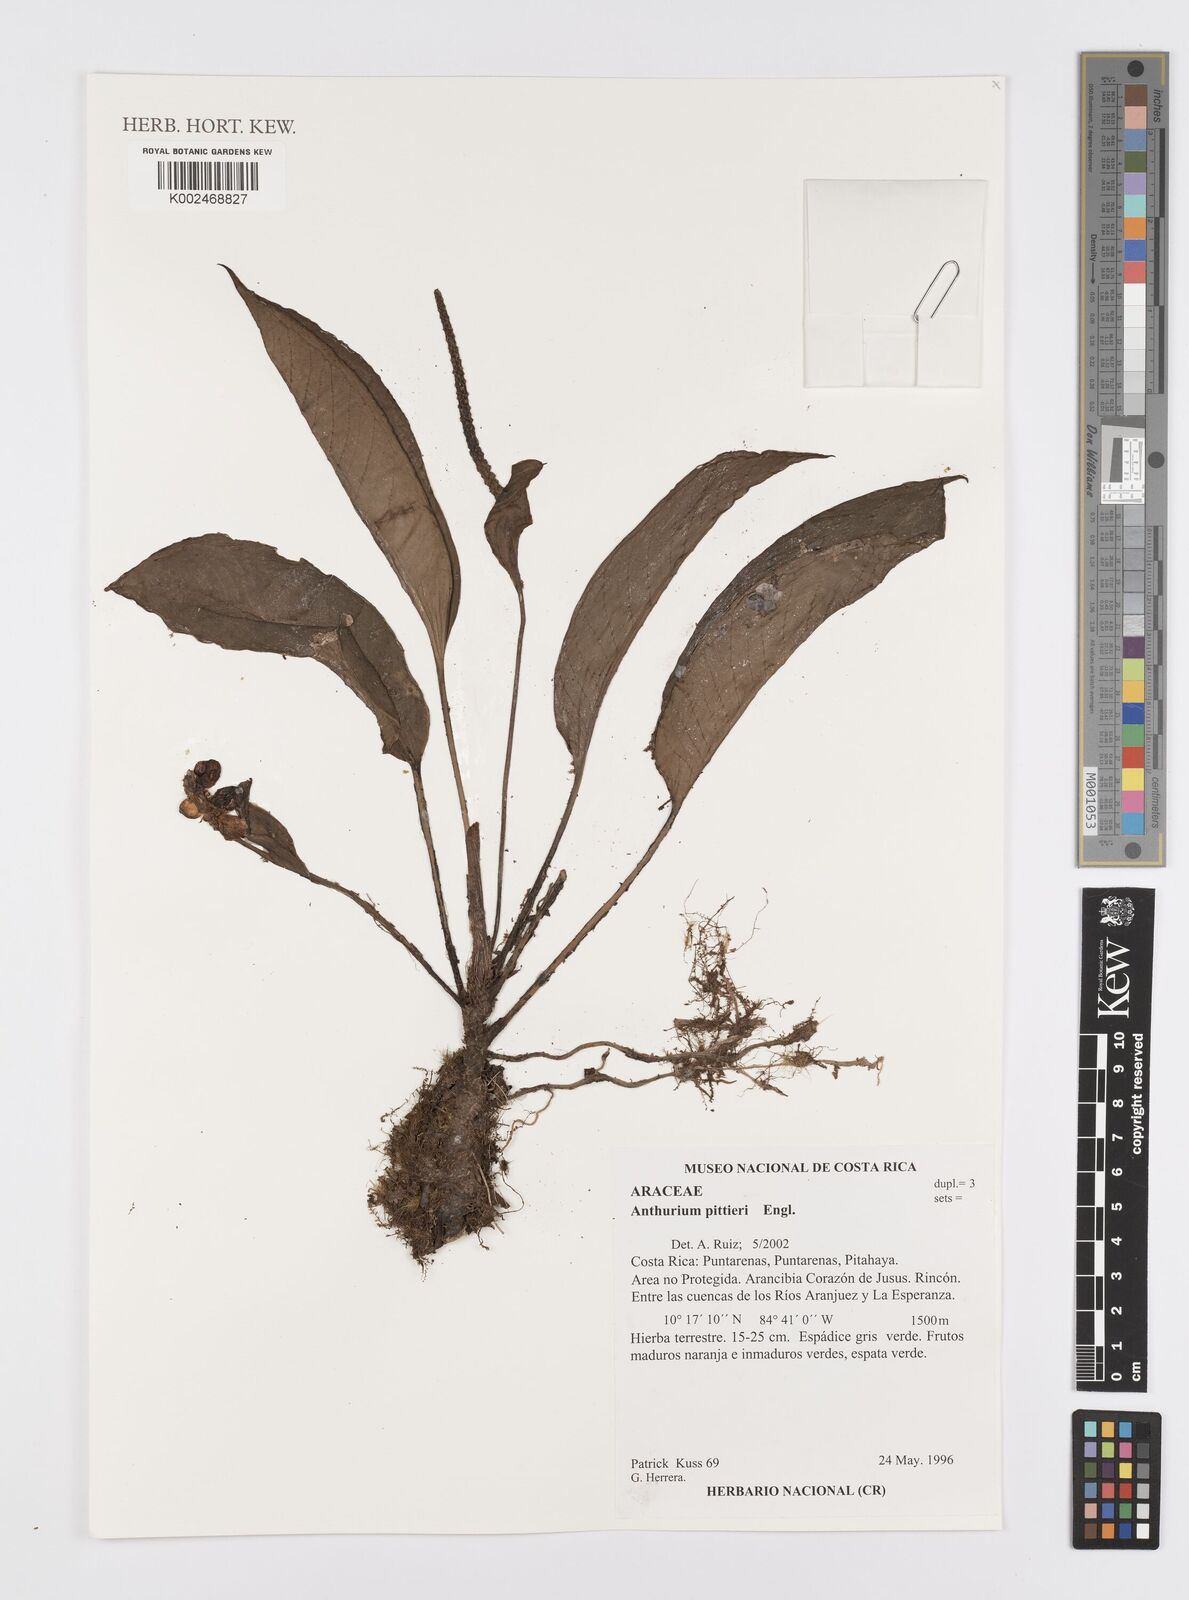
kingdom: Plantae
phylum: Tracheophyta
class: Liliopsida
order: Alismatales
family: Araceae
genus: Anthurium
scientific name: Anthurium pittieri
